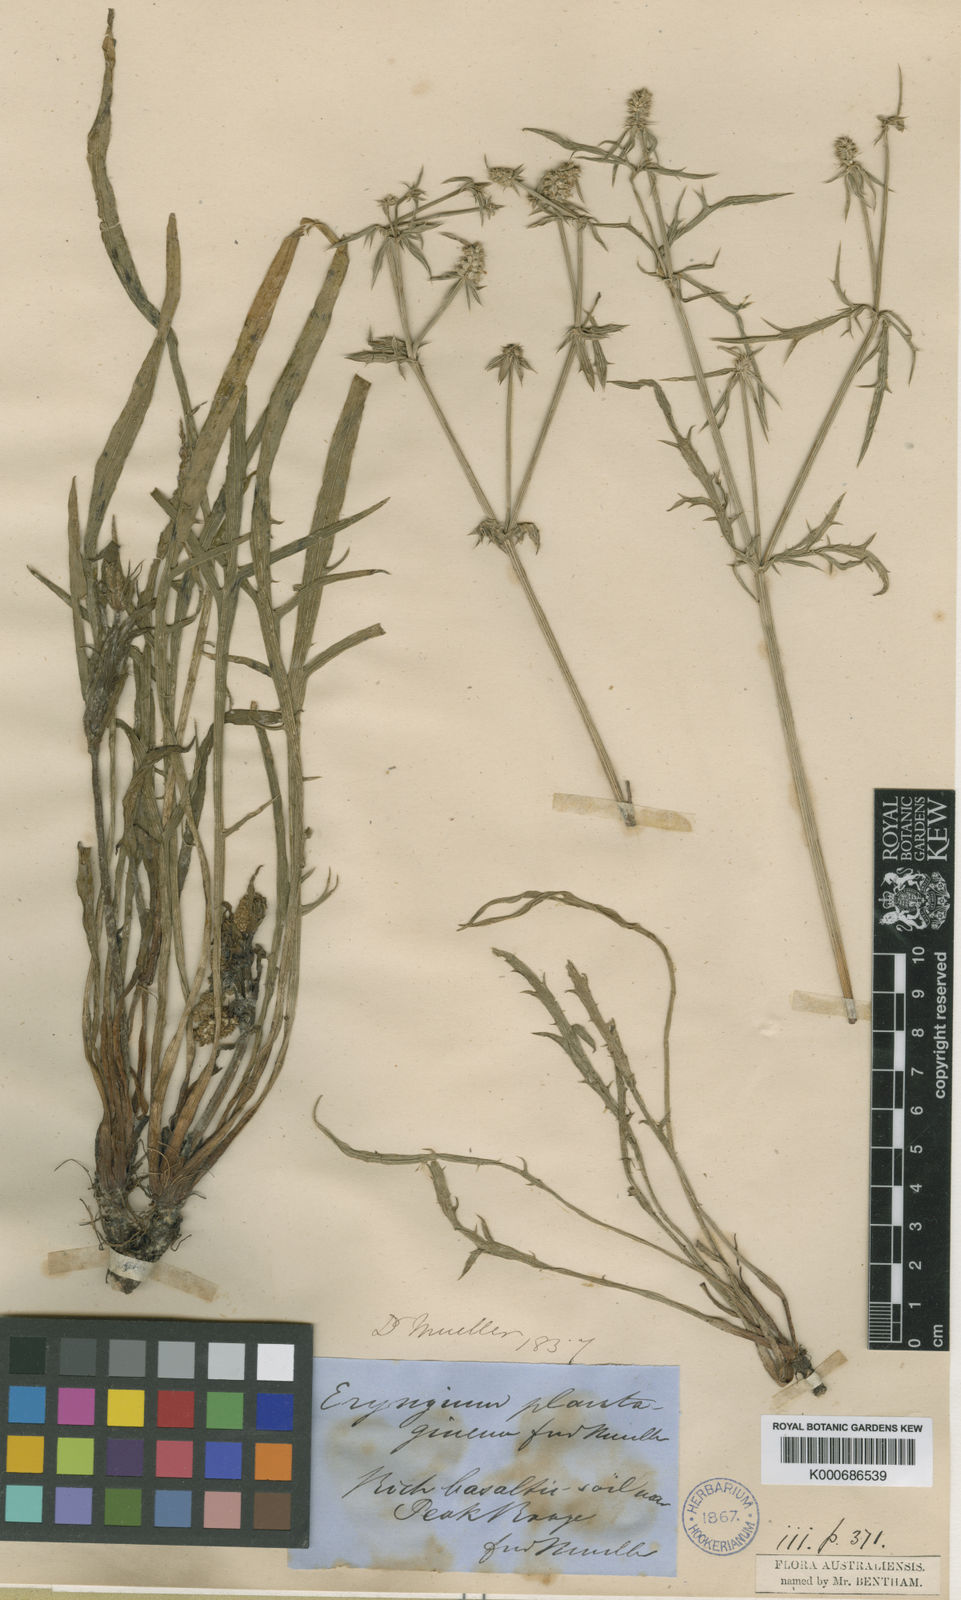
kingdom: Plantae
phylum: Tracheophyta
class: Magnoliopsida
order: Apiales
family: Apiaceae
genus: Eryngium
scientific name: Eryngium plantagineum
